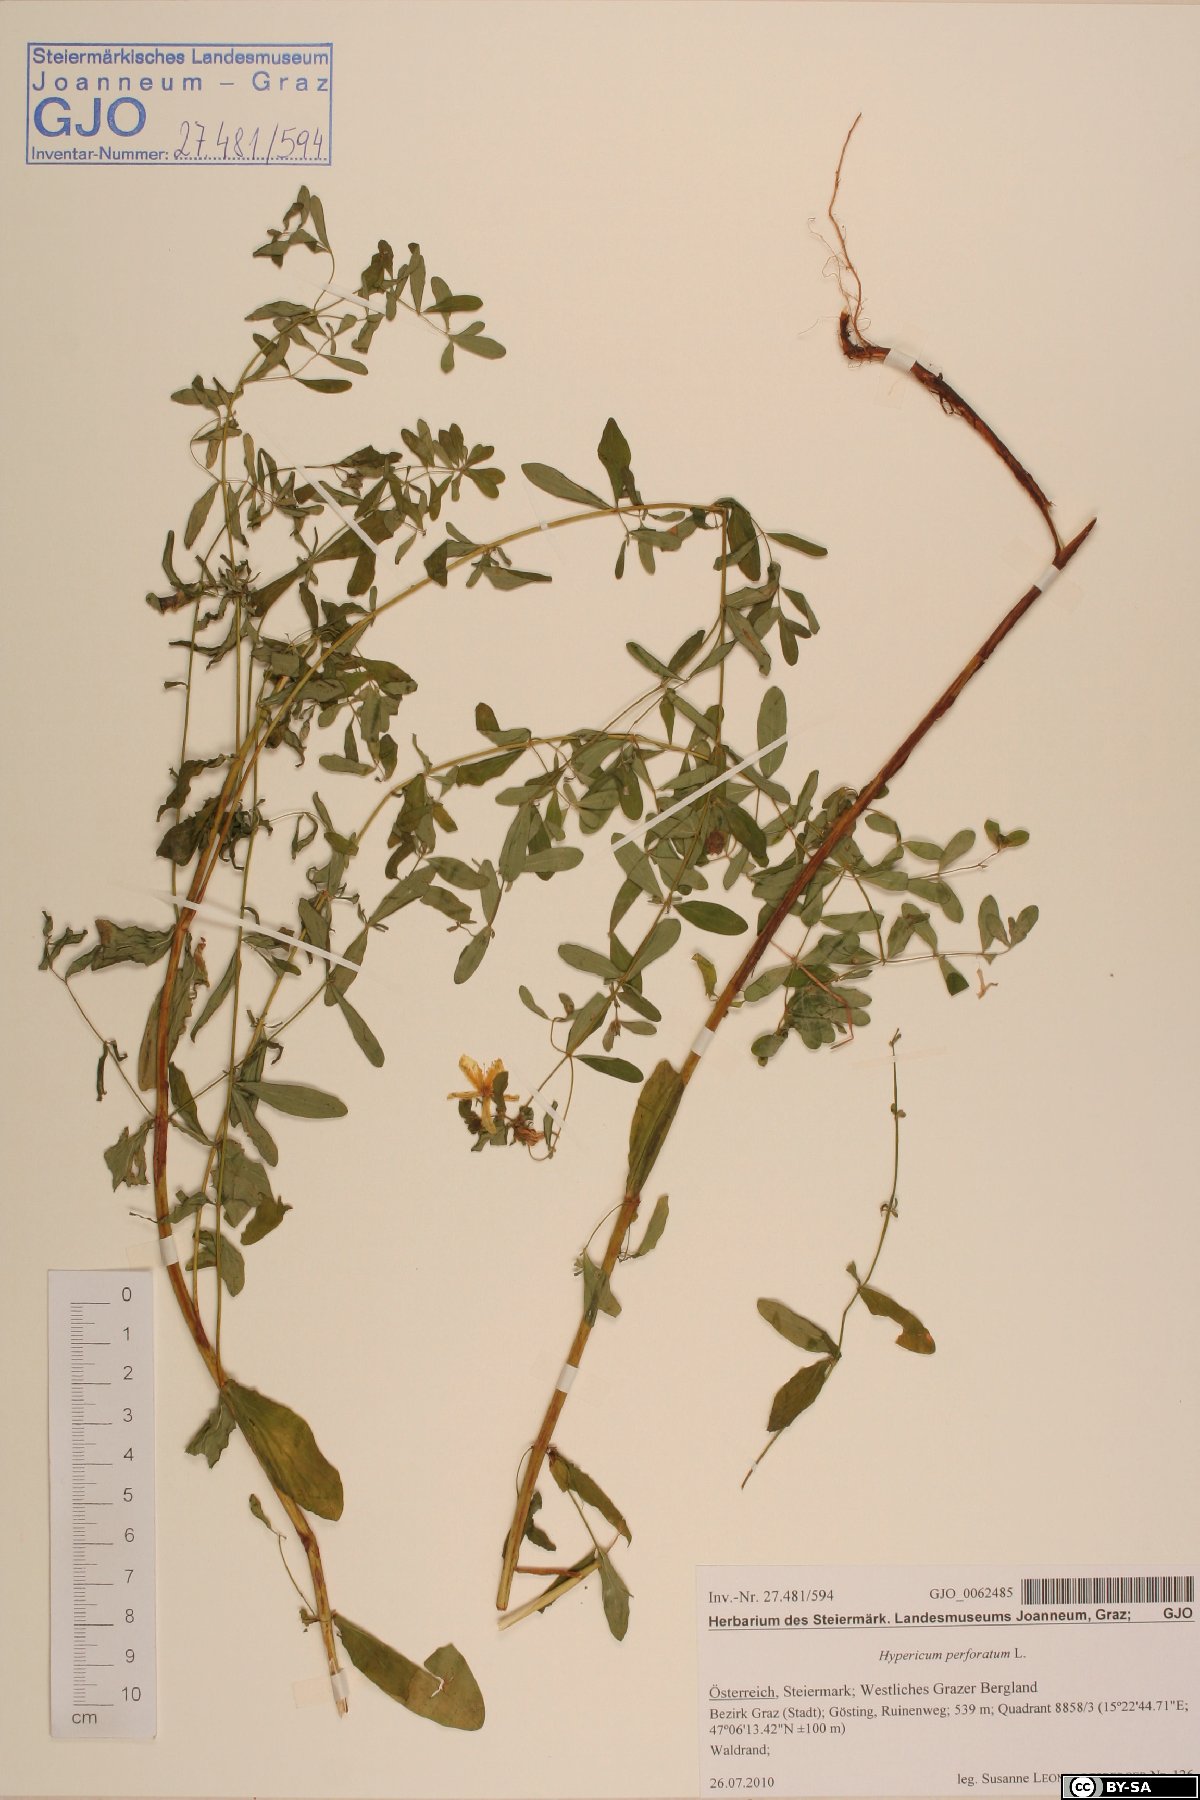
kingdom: Plantae
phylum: Tracheophyta
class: Magnoliopsida
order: Malpighiales
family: Hypericaceae
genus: Hypericum
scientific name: Hypericum perforatum
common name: Common st. johnswort
